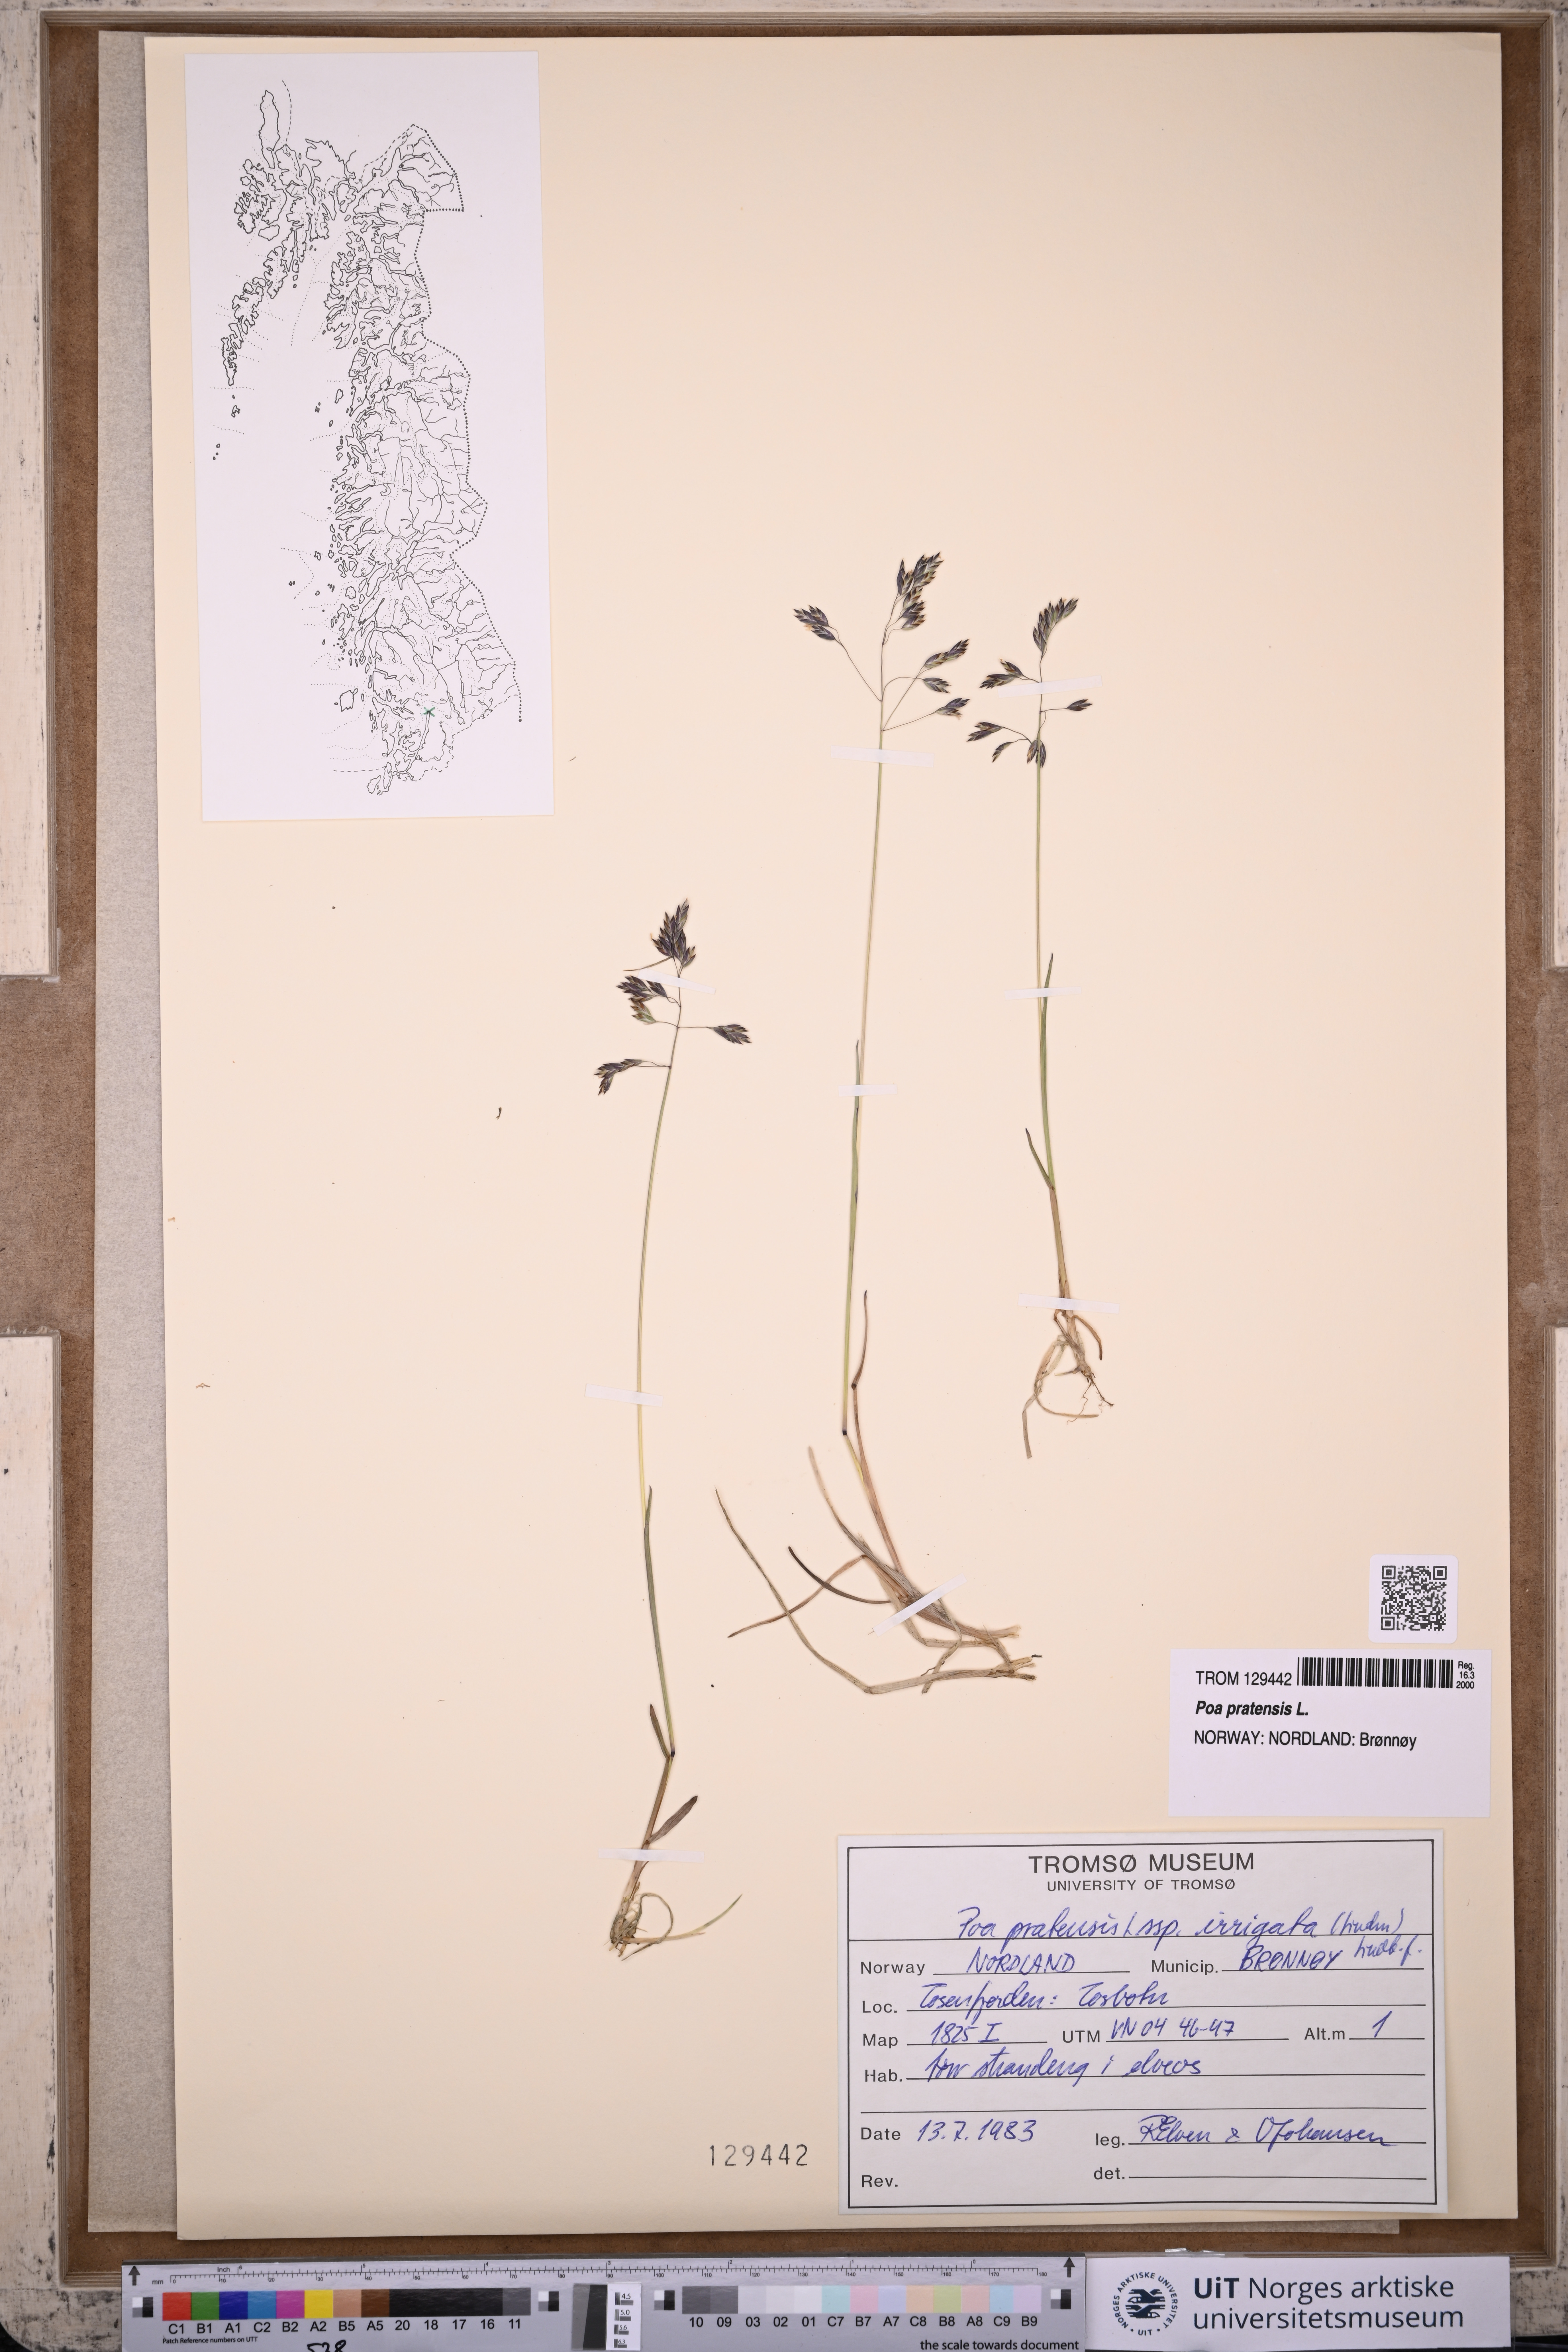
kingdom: Plantae
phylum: Tracheophyta
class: Liliopsida
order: Poales
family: Poaceae
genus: Poa
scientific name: Poa pratensis
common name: Kentucky bluegrass
